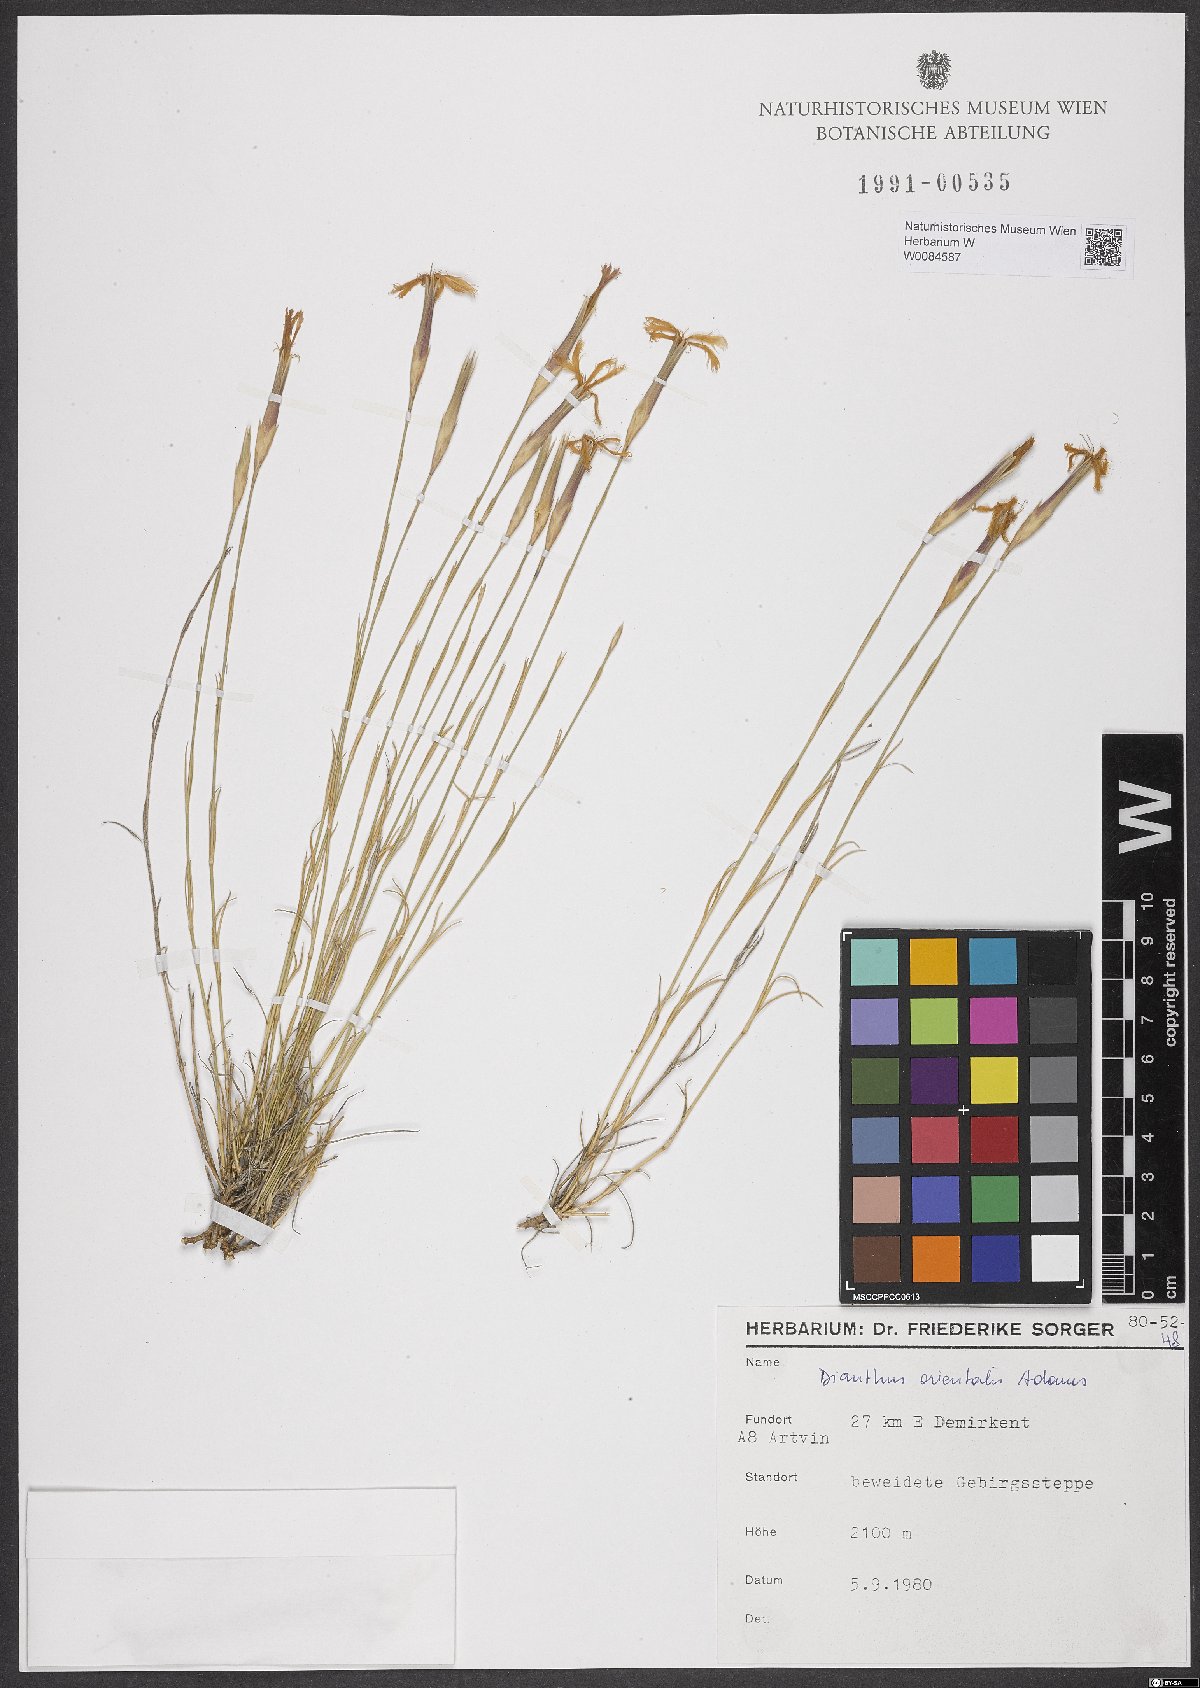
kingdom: Plantae
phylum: Tracheophyta
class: Magnoliopsida
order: Caryophyllales
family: Caryophyllaceae
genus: Dianthus
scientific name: Dianthus orientalis
